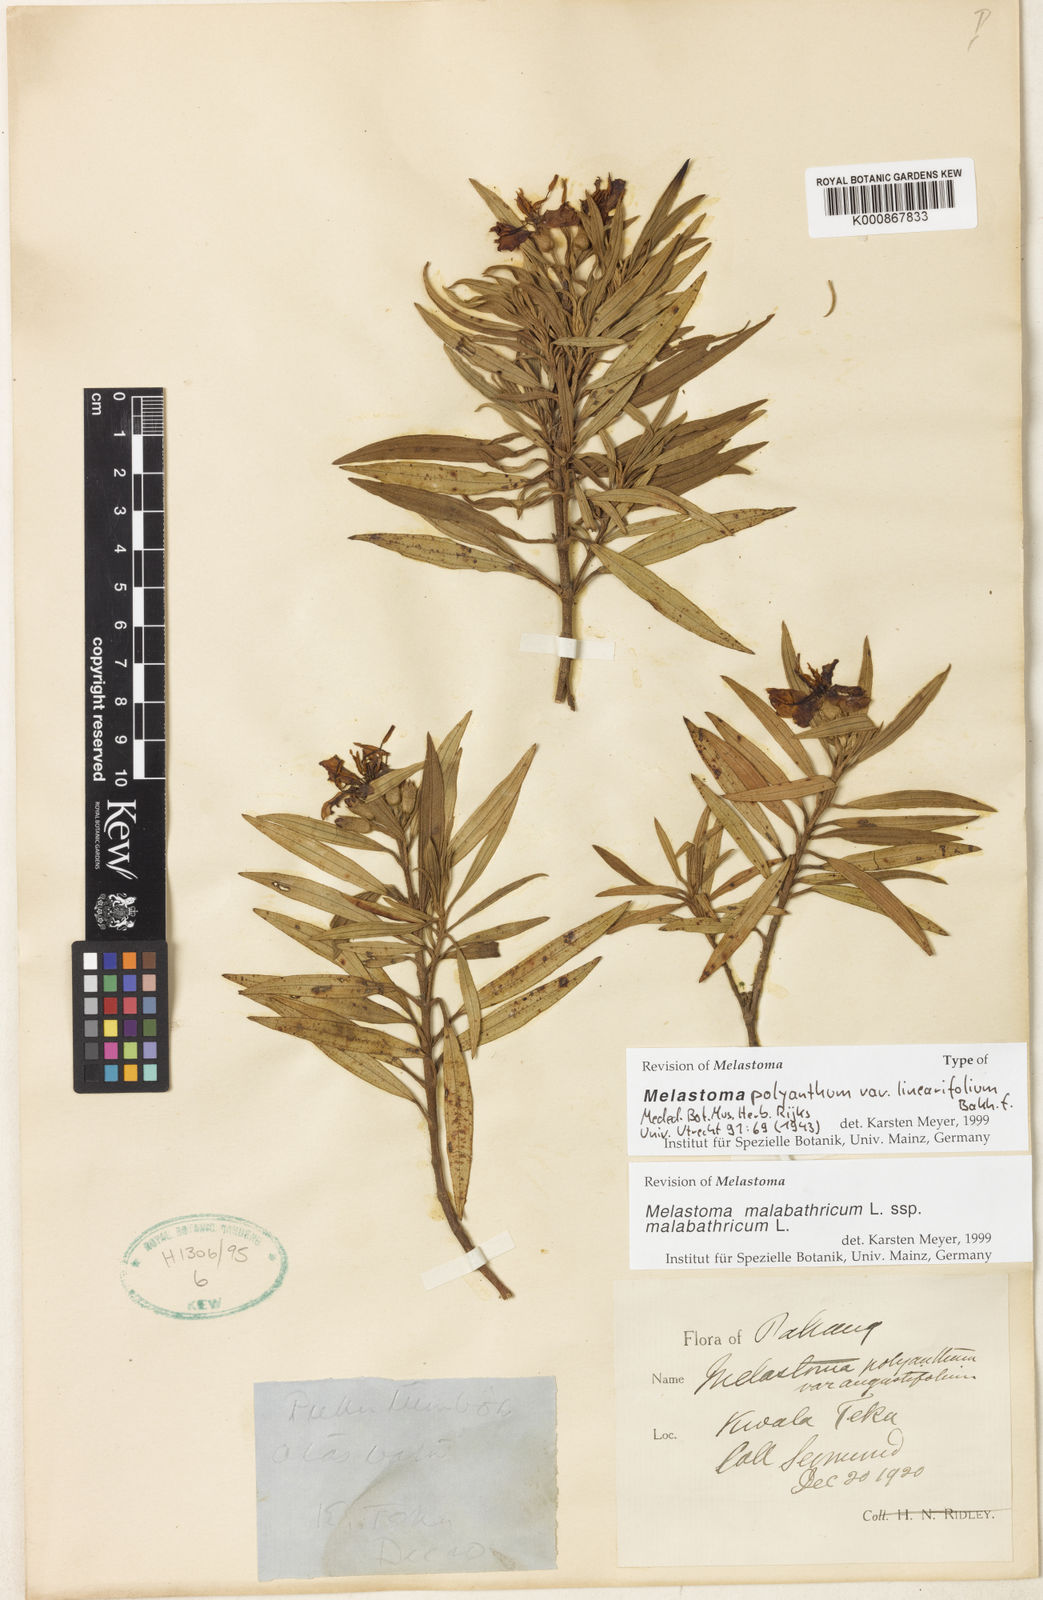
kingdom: Plantae
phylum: Tracheophyta
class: Magnoliopsida
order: Myrtales
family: Melastomataceae
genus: Melastoma
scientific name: Melastoma malabathricum
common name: Indian-rhododendron
